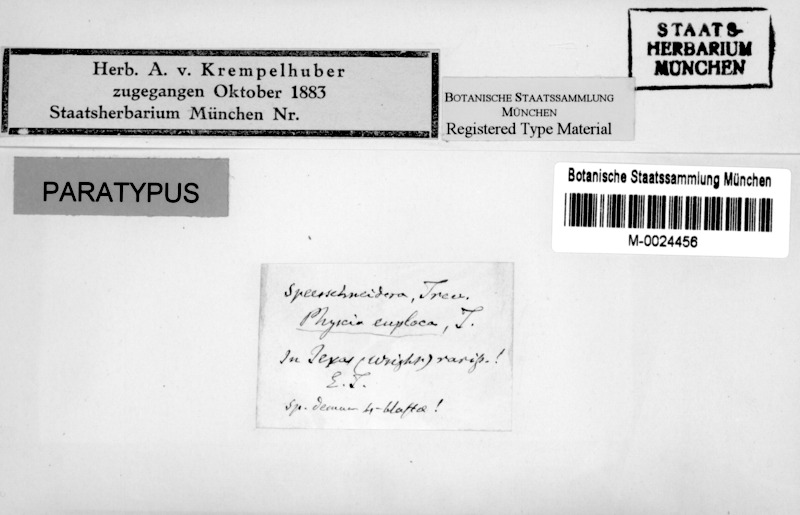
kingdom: Fungi
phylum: Ascomycota
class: Lecanoromycetes
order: Teloschistales
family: Leprocaulaceae
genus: Speerschneidera
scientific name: Speerschneidera euploca
